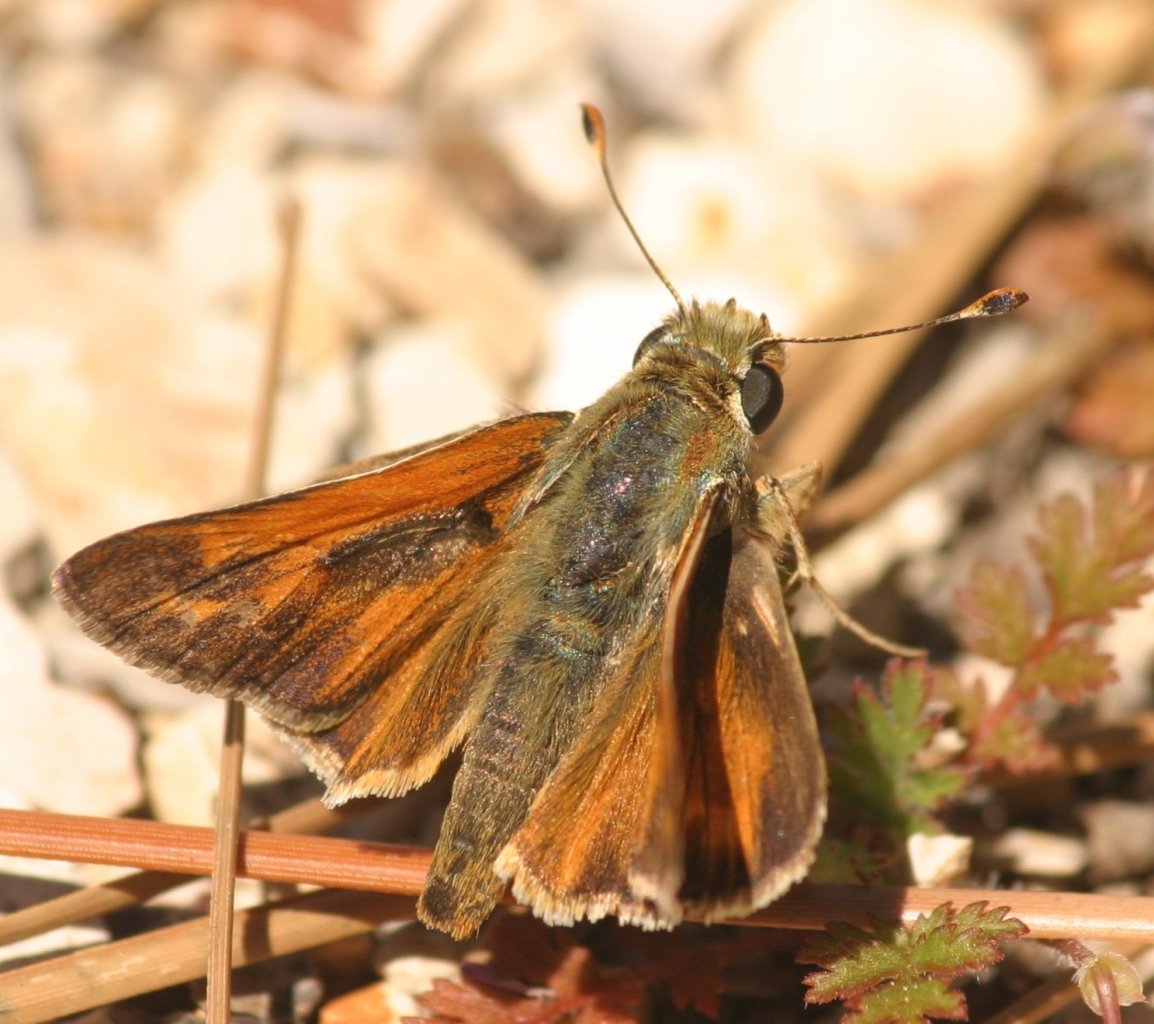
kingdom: Animalia
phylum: Arthropoda
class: Insecta
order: Lepidoptera
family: Hesperiidae
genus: Hesperia
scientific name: Hesperia columbia
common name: Columbian Skipper
